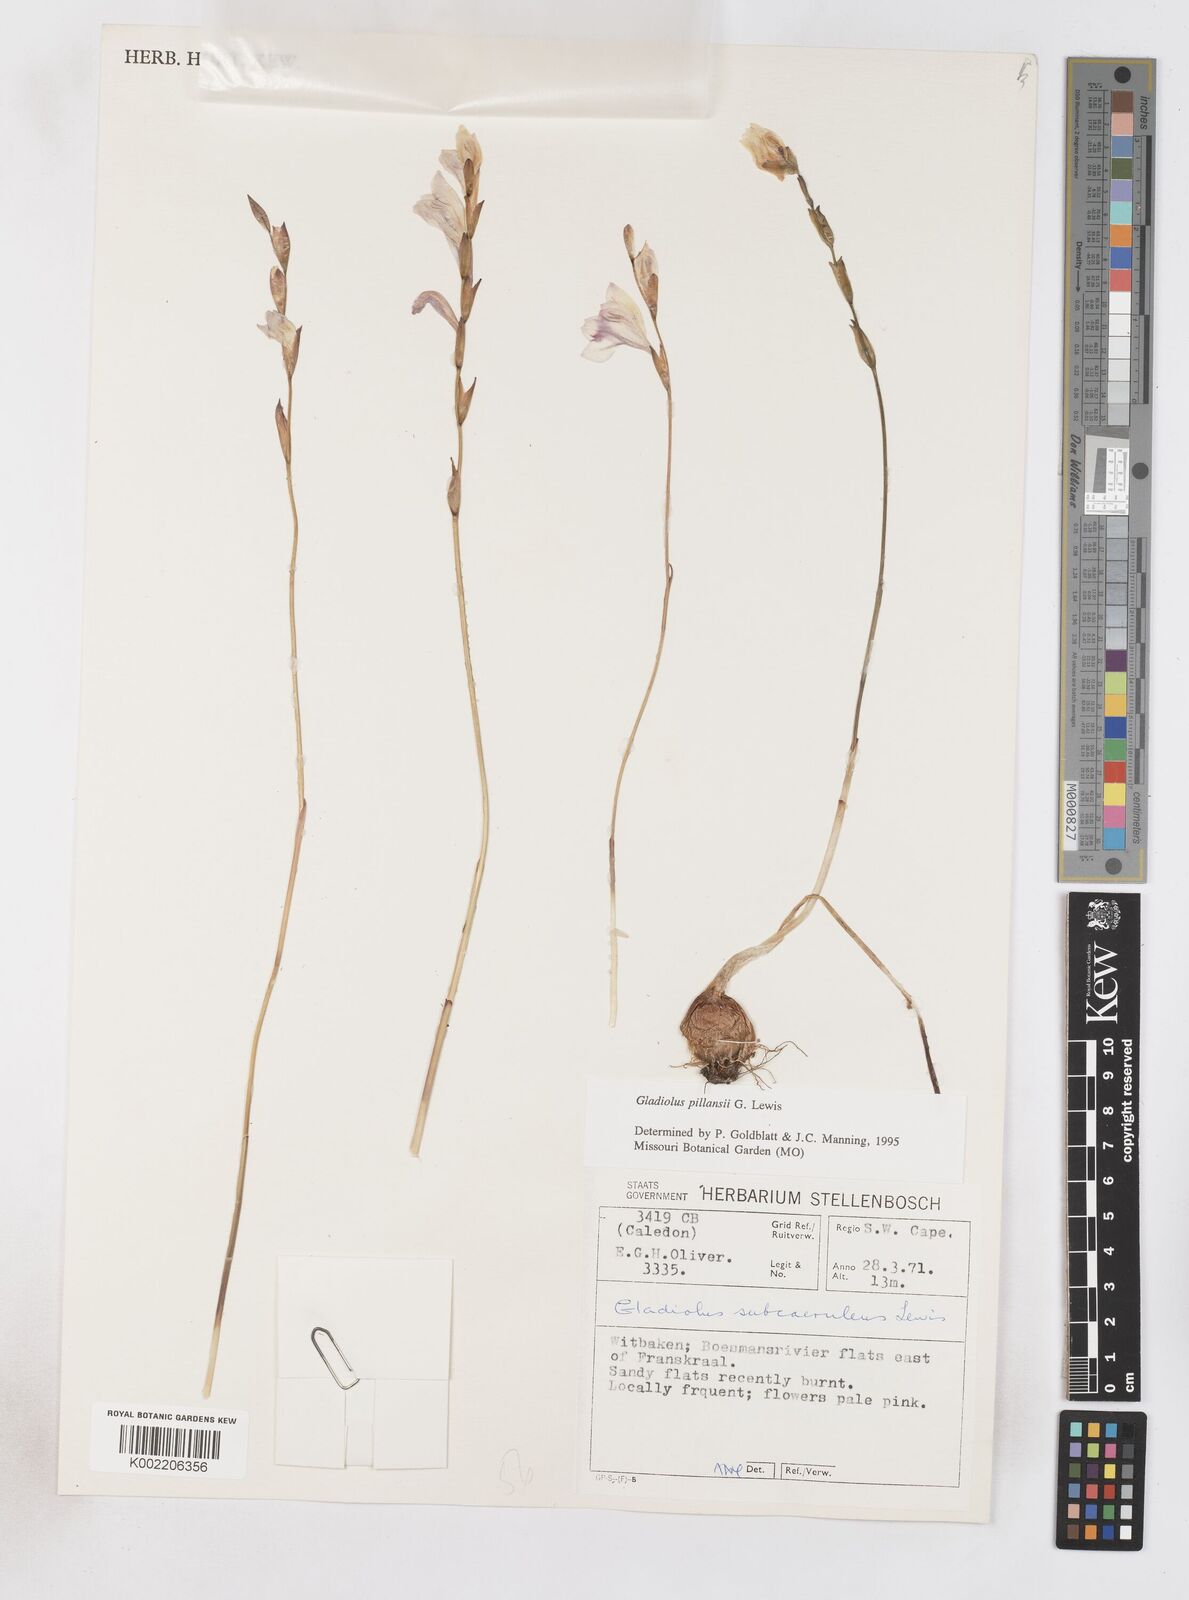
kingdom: Plantae
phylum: Tracheophyta
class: Liliopsida
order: Asparagales
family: Iridaceae
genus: Gladiolus
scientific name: Gladiolus martleyi
